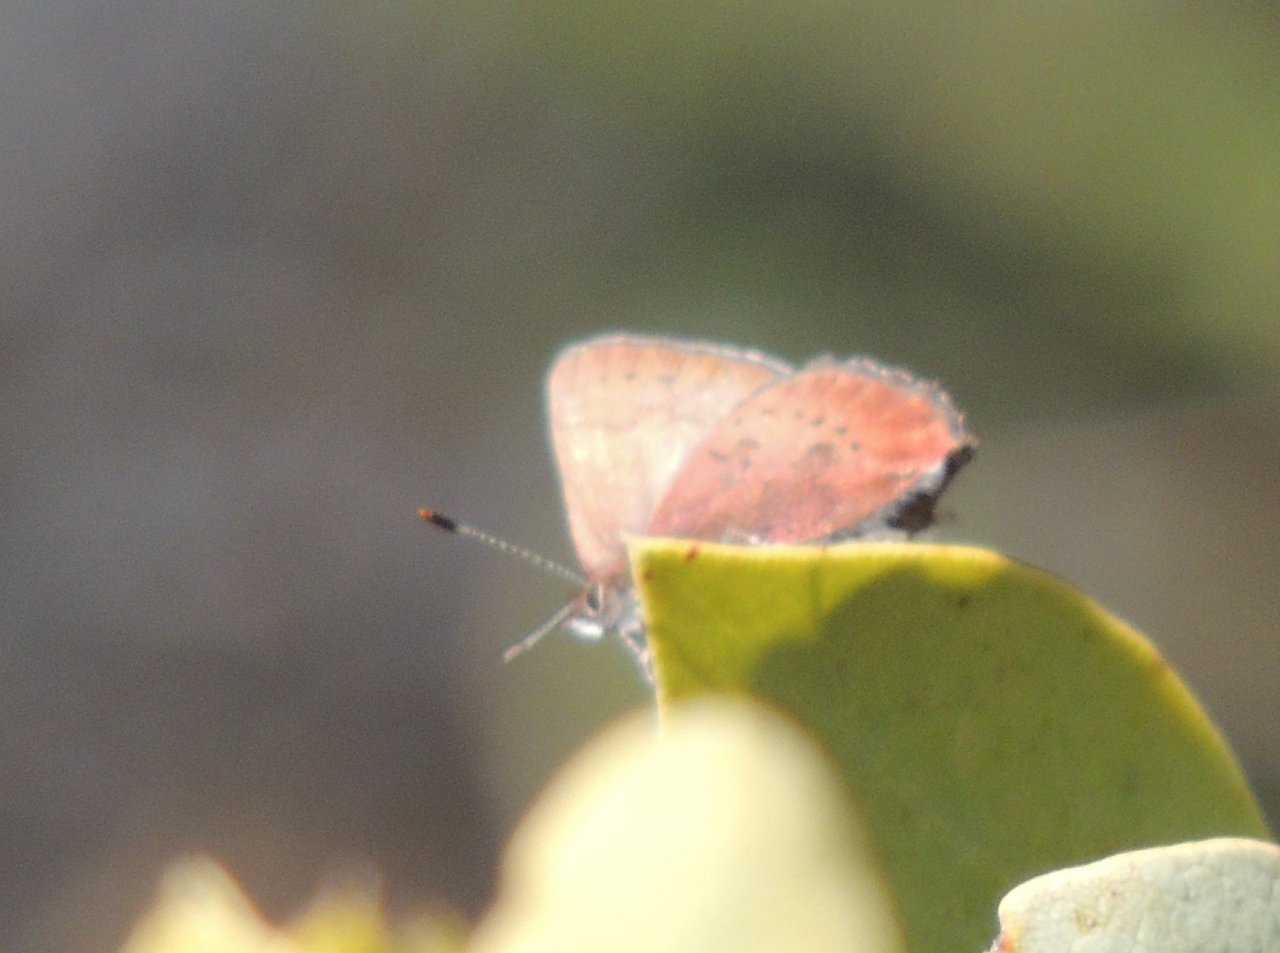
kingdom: Animalia
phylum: Arthropoda
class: Insecta
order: Lepidoptera
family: Lycaenidae
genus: Incisalia
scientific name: Incisalia irioides
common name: Brown Elfin
